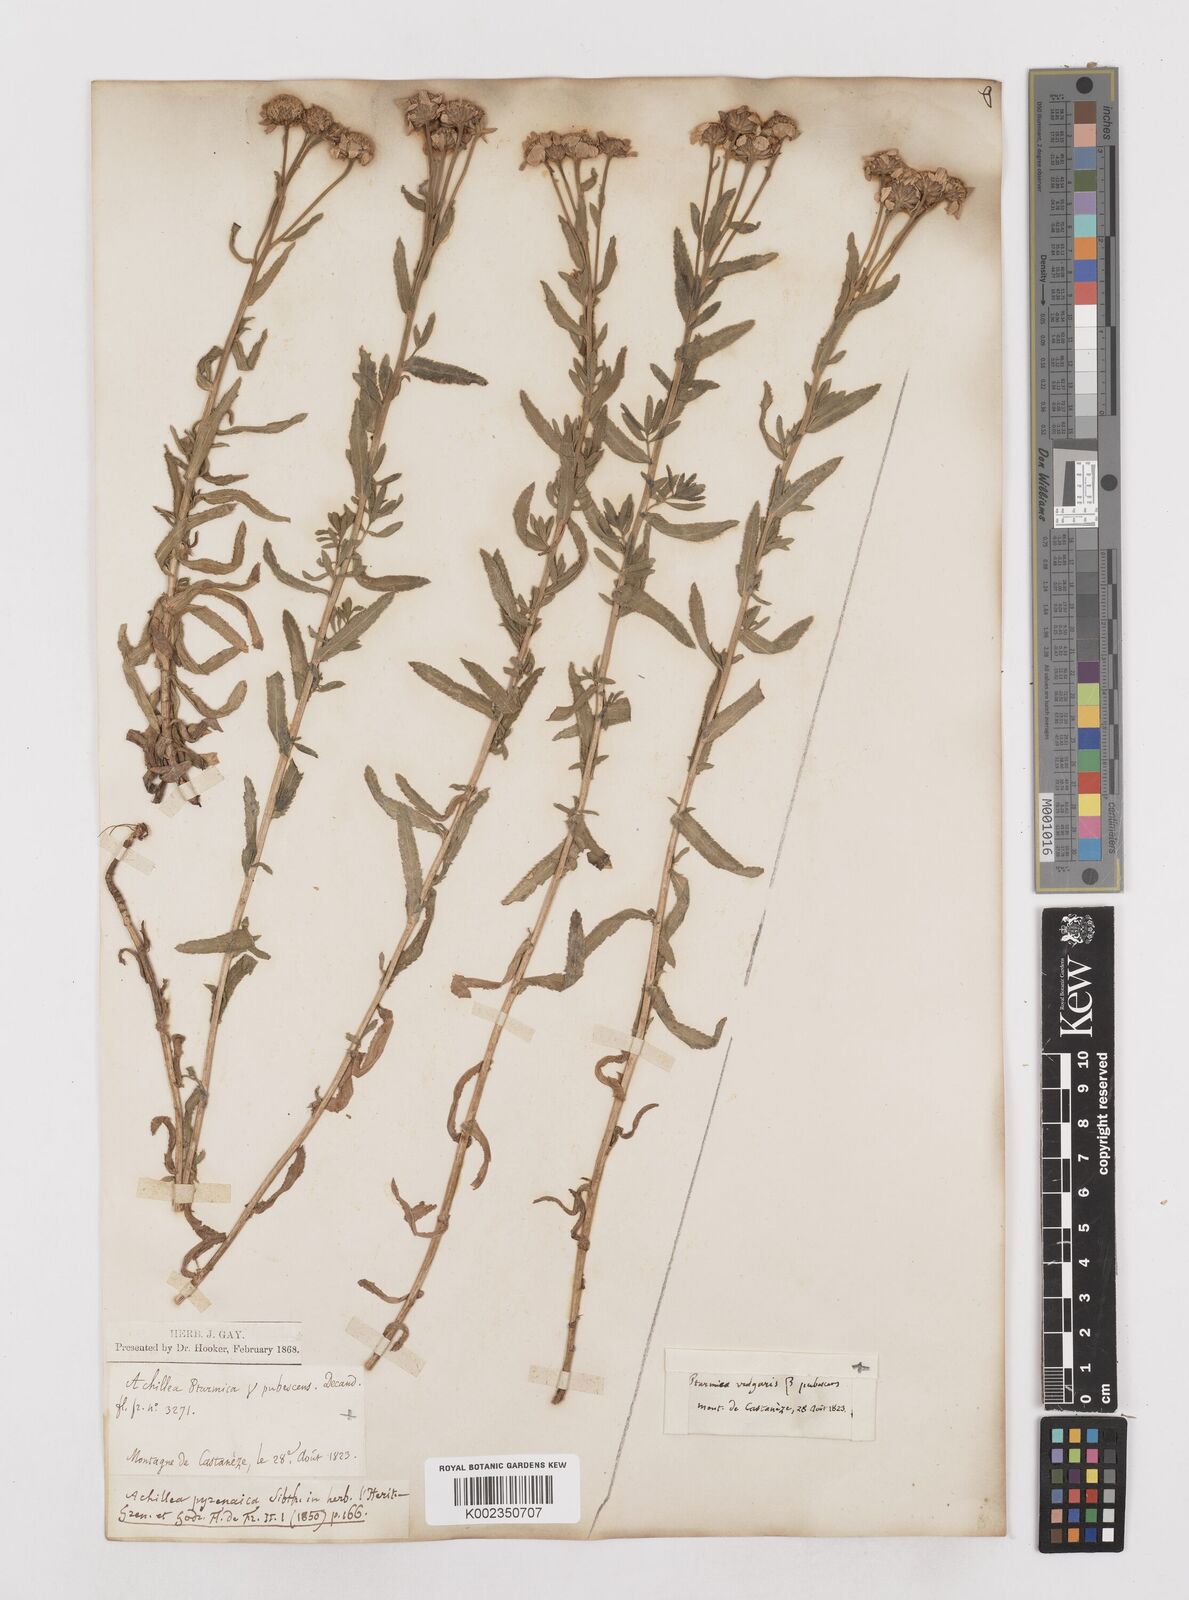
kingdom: Plantae
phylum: Tracheophyta
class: Magnoliopsida
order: Asterales
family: Asteraceae
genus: Achillea
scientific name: Achillea pyrenaica
